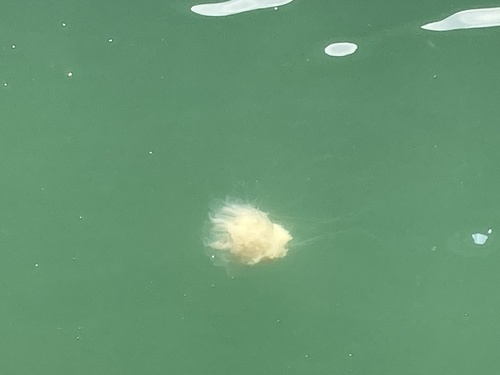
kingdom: Animalia
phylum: Cnidaria
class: Scyphozoa
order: Semaeostomeae
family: Cyaneidae
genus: Cyanea
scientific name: Cyanea nozakii
